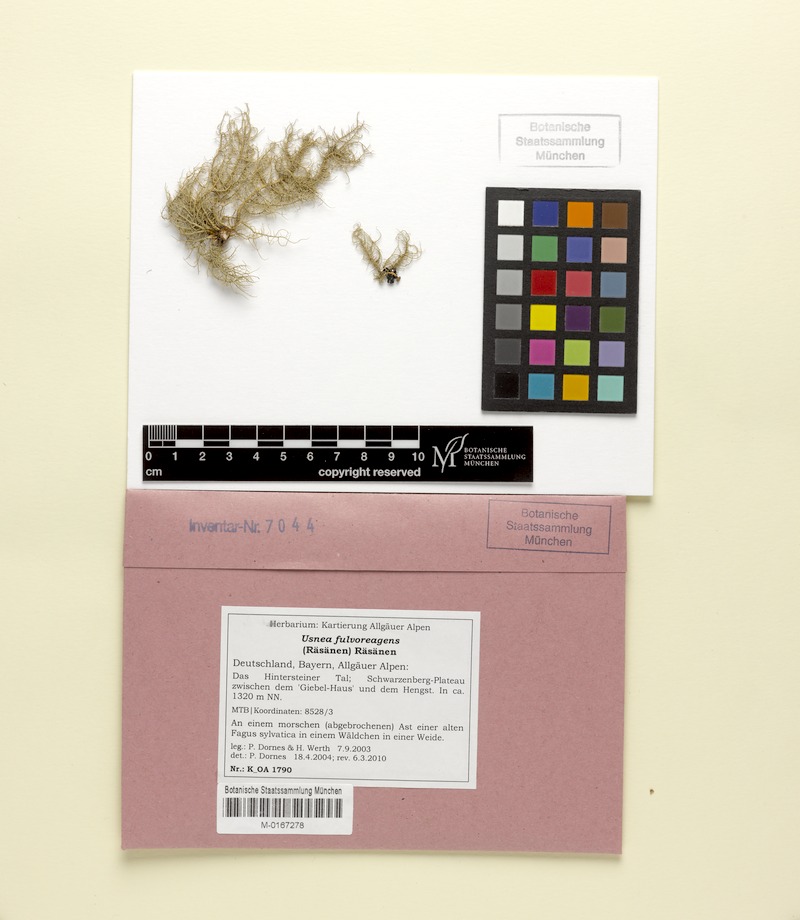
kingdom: Fungi
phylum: Ascomycota
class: Lecanoromycetes
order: Lecanorales
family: Parmeliaceae
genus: Usnea
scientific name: Usnea fulvoreagens
